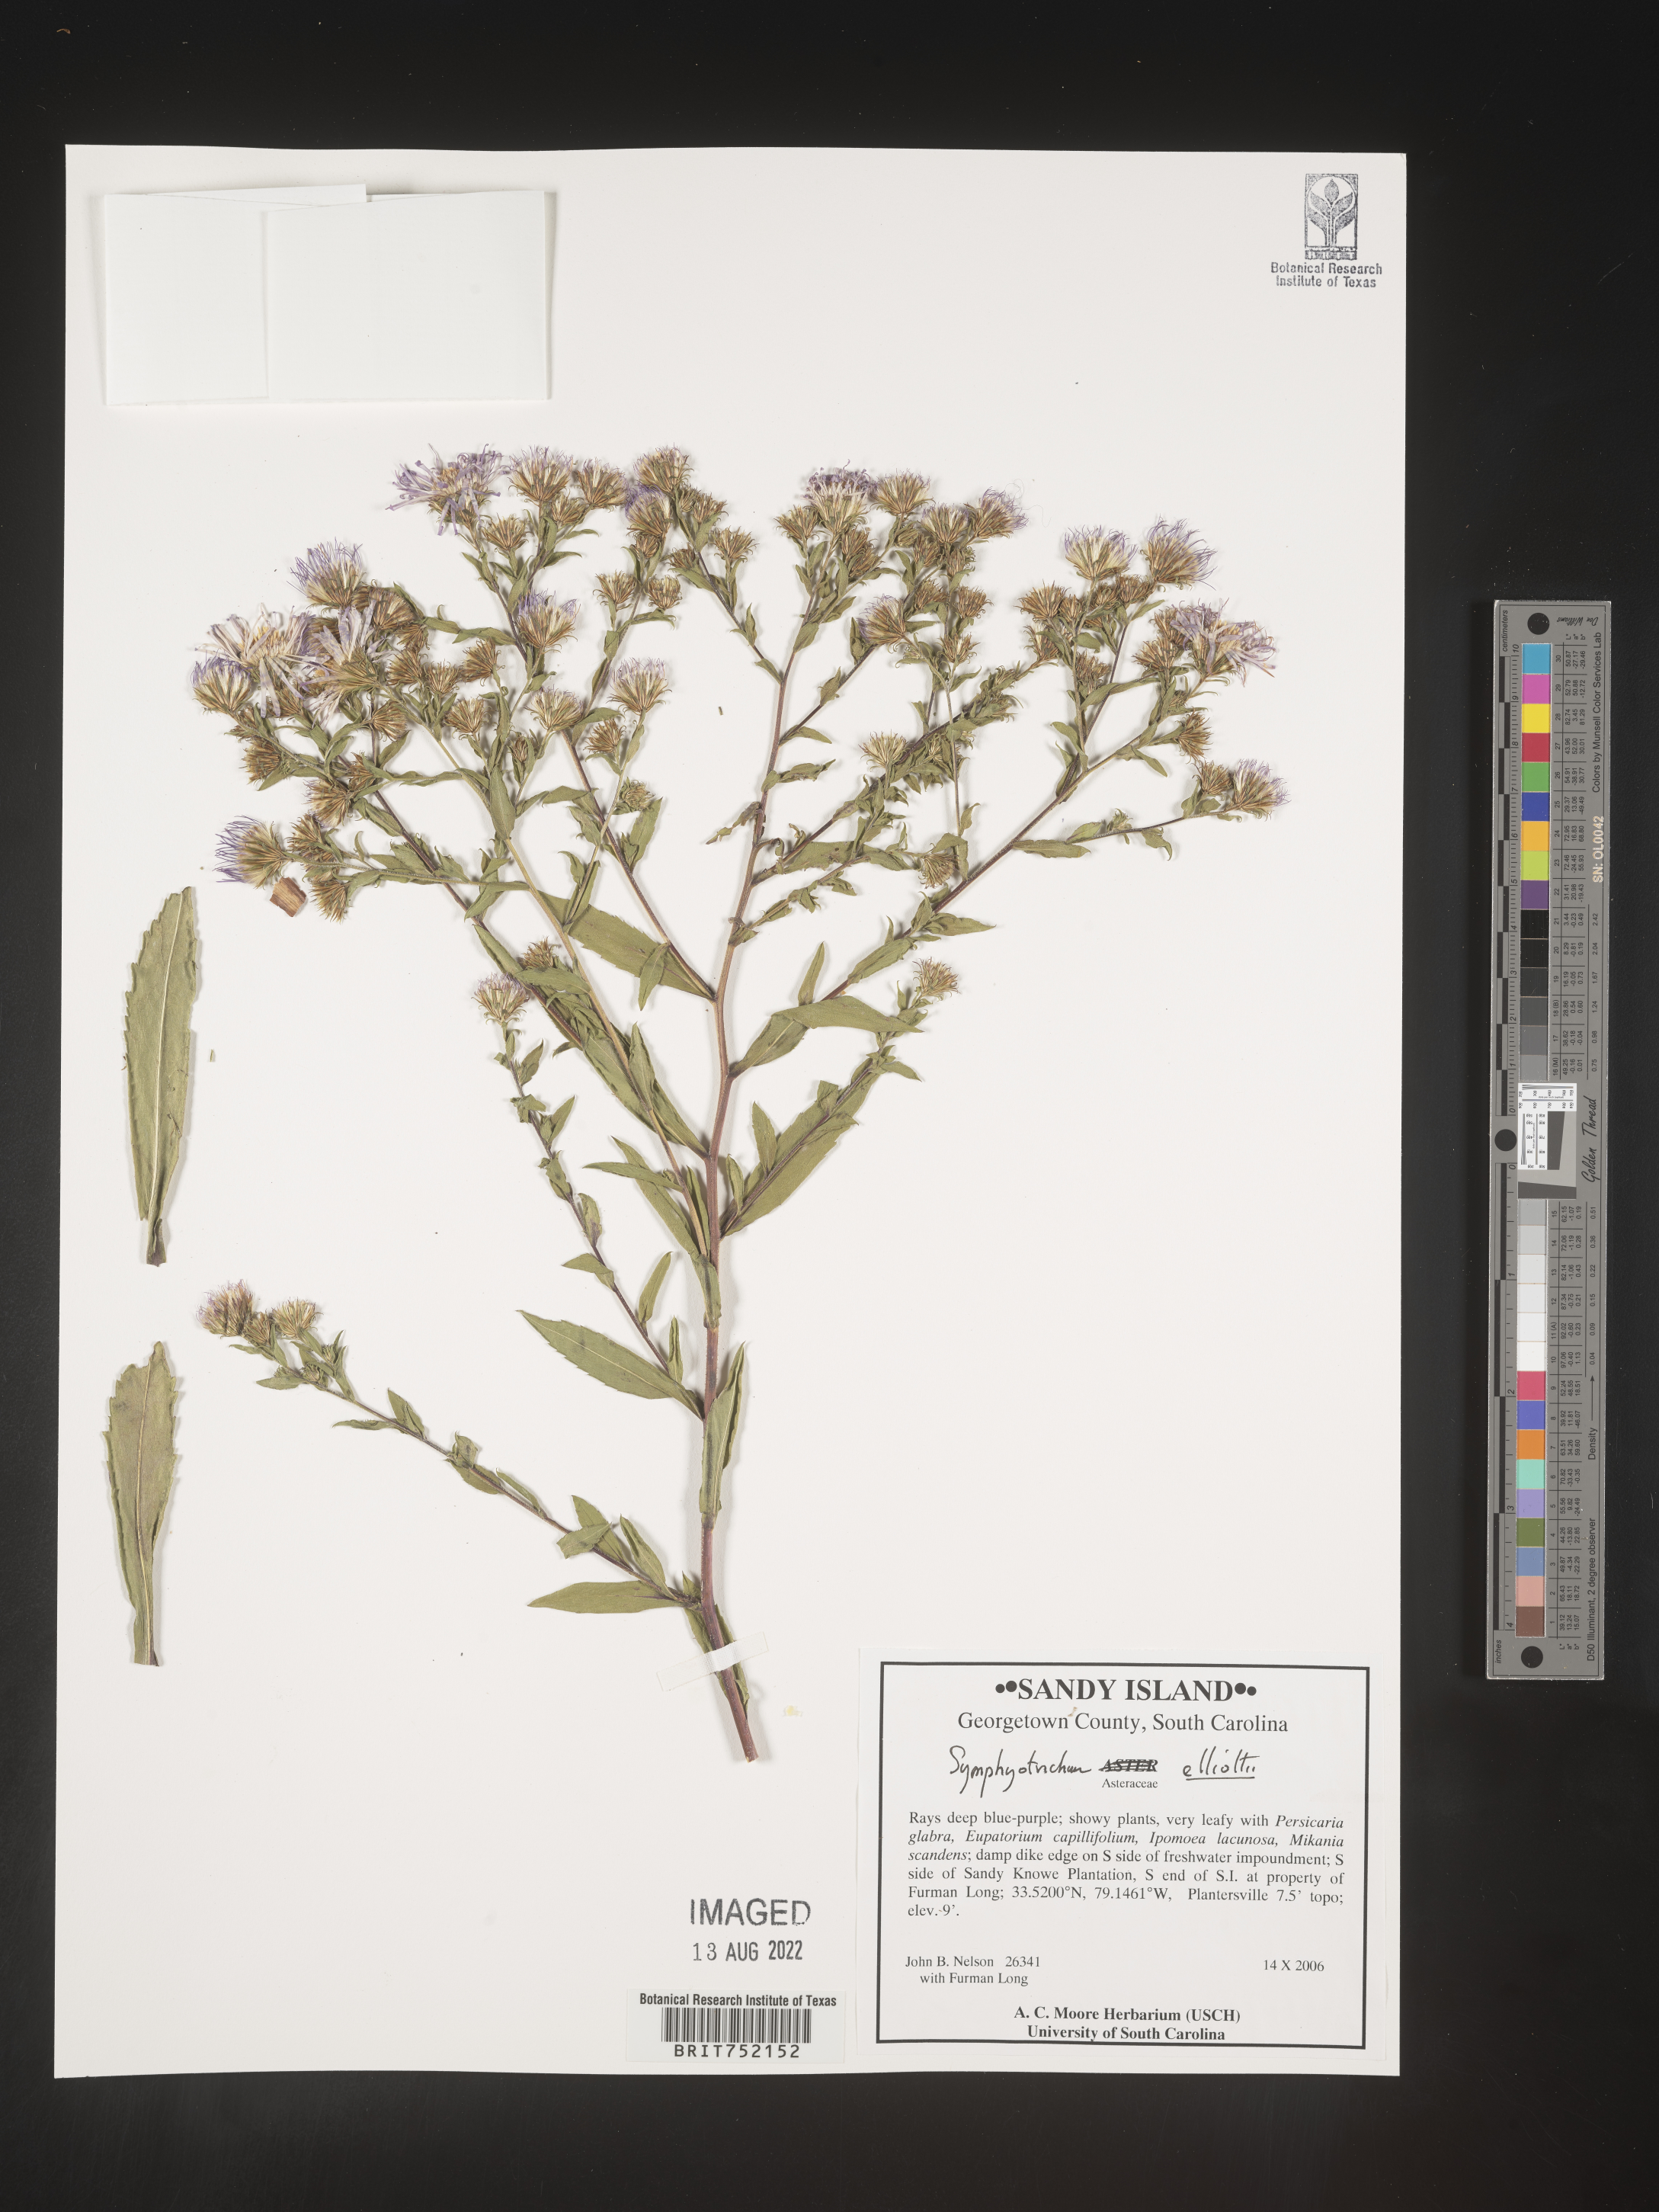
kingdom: Plantae
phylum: Tracheophyta
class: Magnoliopsida
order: Asterales
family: Asteraceae
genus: Symphyotrichum
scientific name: Symphyotrichum elliottii
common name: Southern swamp aster
